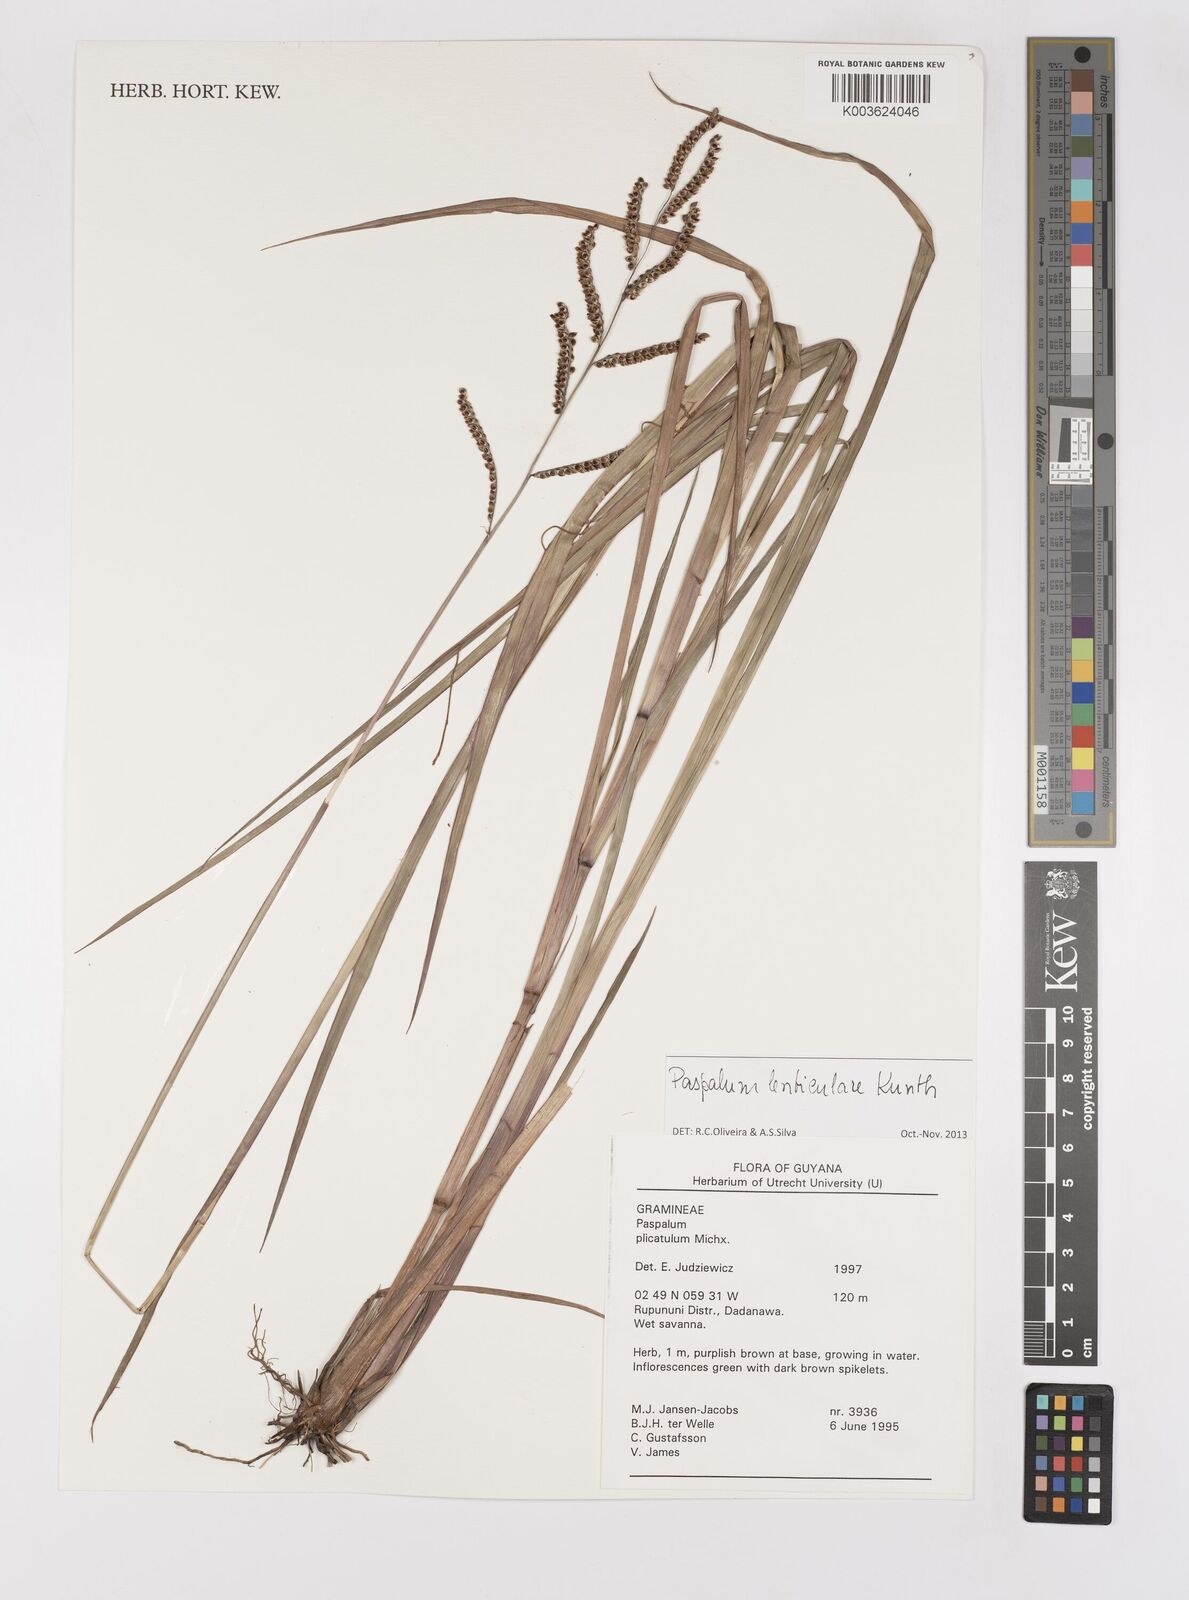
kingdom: Plantae
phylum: Tracheophyta
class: Liliopsida
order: Poales
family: Poaceae
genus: Paspalum
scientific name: Paspalum plicatulum
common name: Top paspalum
